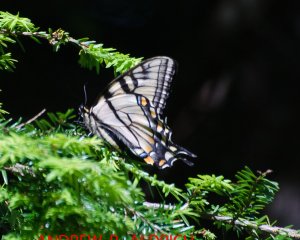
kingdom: Animalia
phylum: Arthropoda
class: Insecta
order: Lepidoptera
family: Papilionidae
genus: Pterourus
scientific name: Pterourus canadensis
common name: Canadian Tiger Swallowtail
